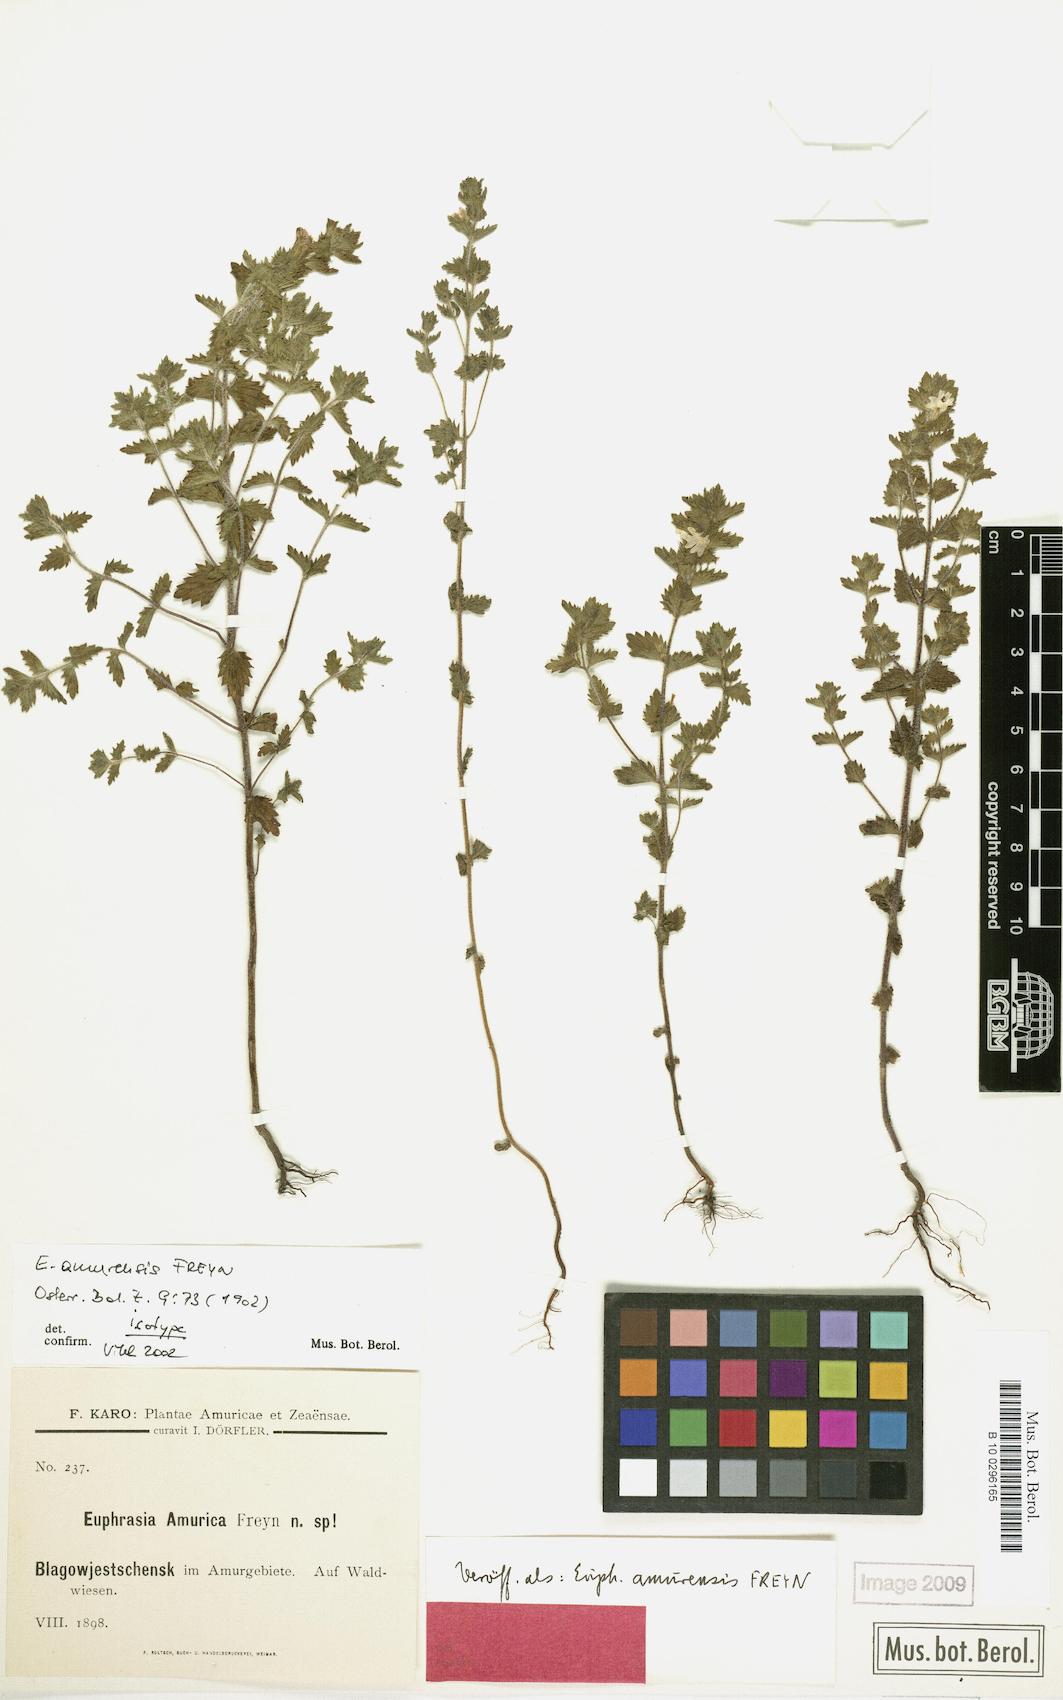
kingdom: Plantae
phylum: Tracheophyta
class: Magnoliopsida
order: Lamiales
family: Orobanchaceae
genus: Euphrasia
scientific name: Euphrasia amurensis
